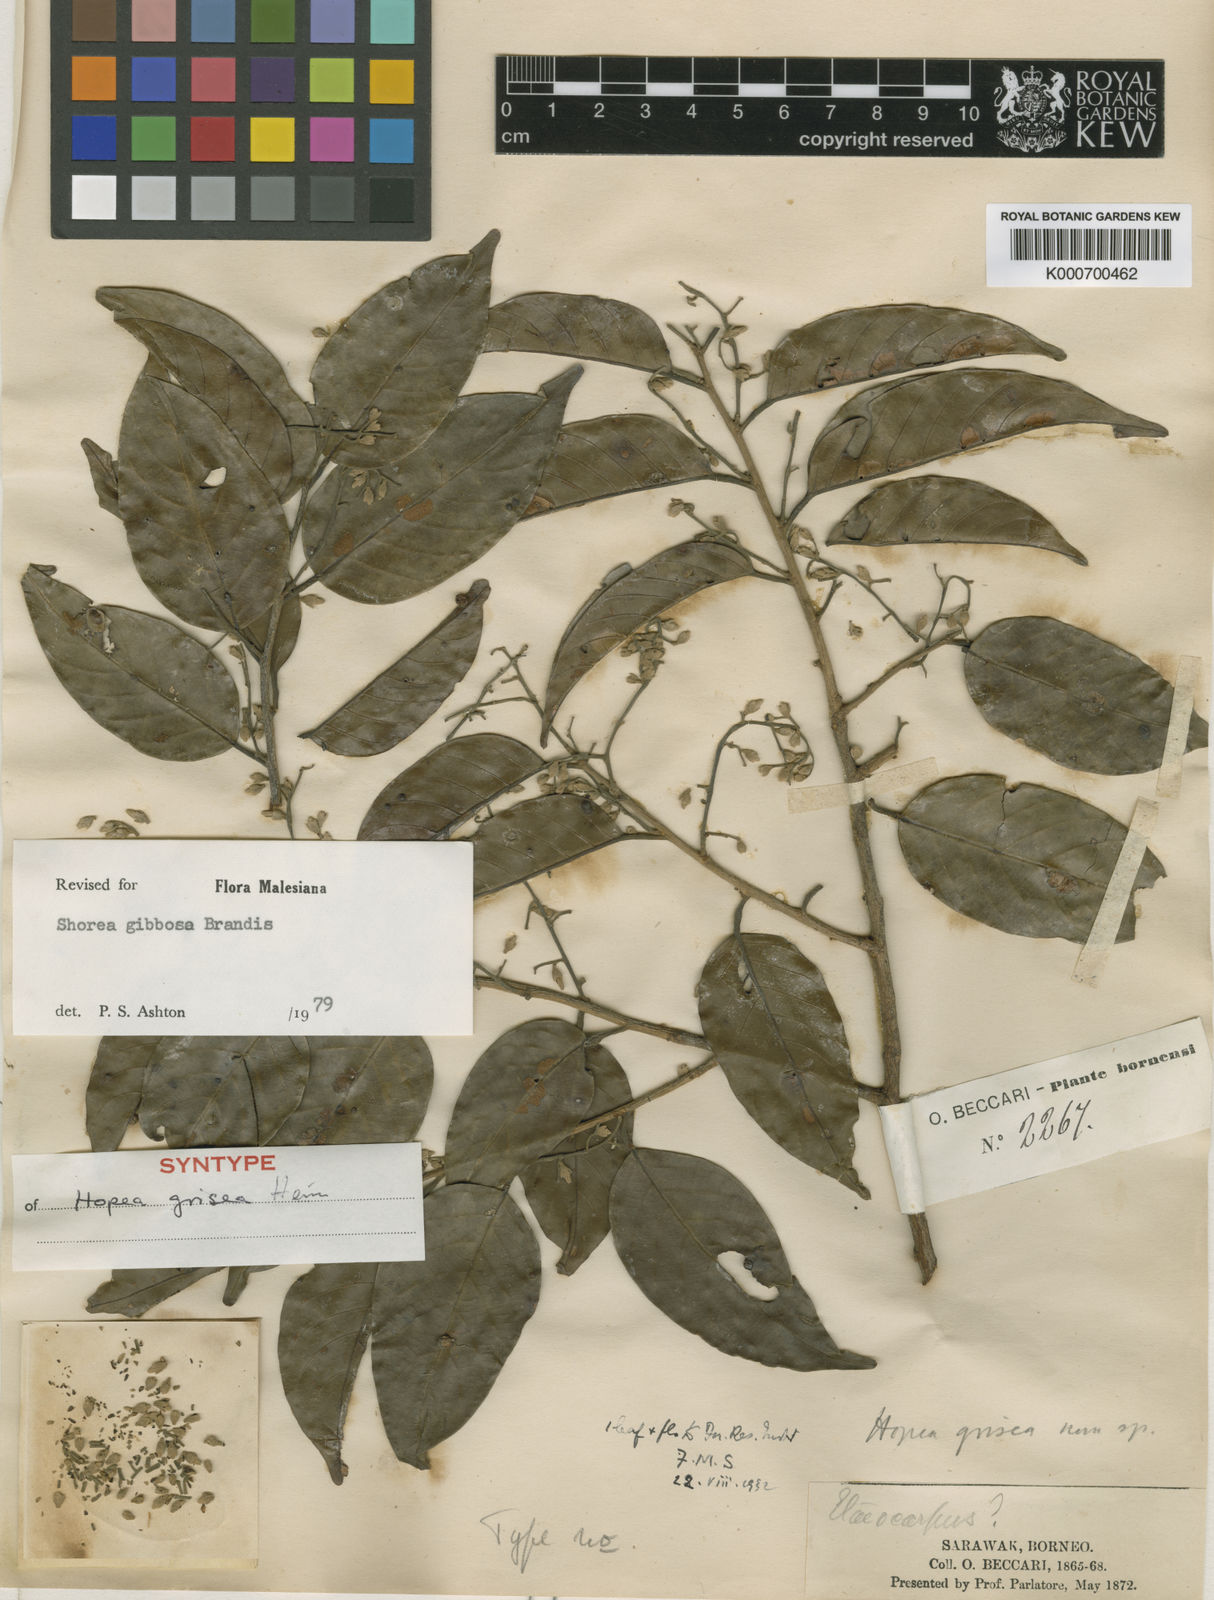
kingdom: Plantae
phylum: Tracheophyta
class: Magnoliopsida
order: Malvales
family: Dipterocarpaceae
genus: Shorea
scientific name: Shorea gibbosa
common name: Yellow meranti
